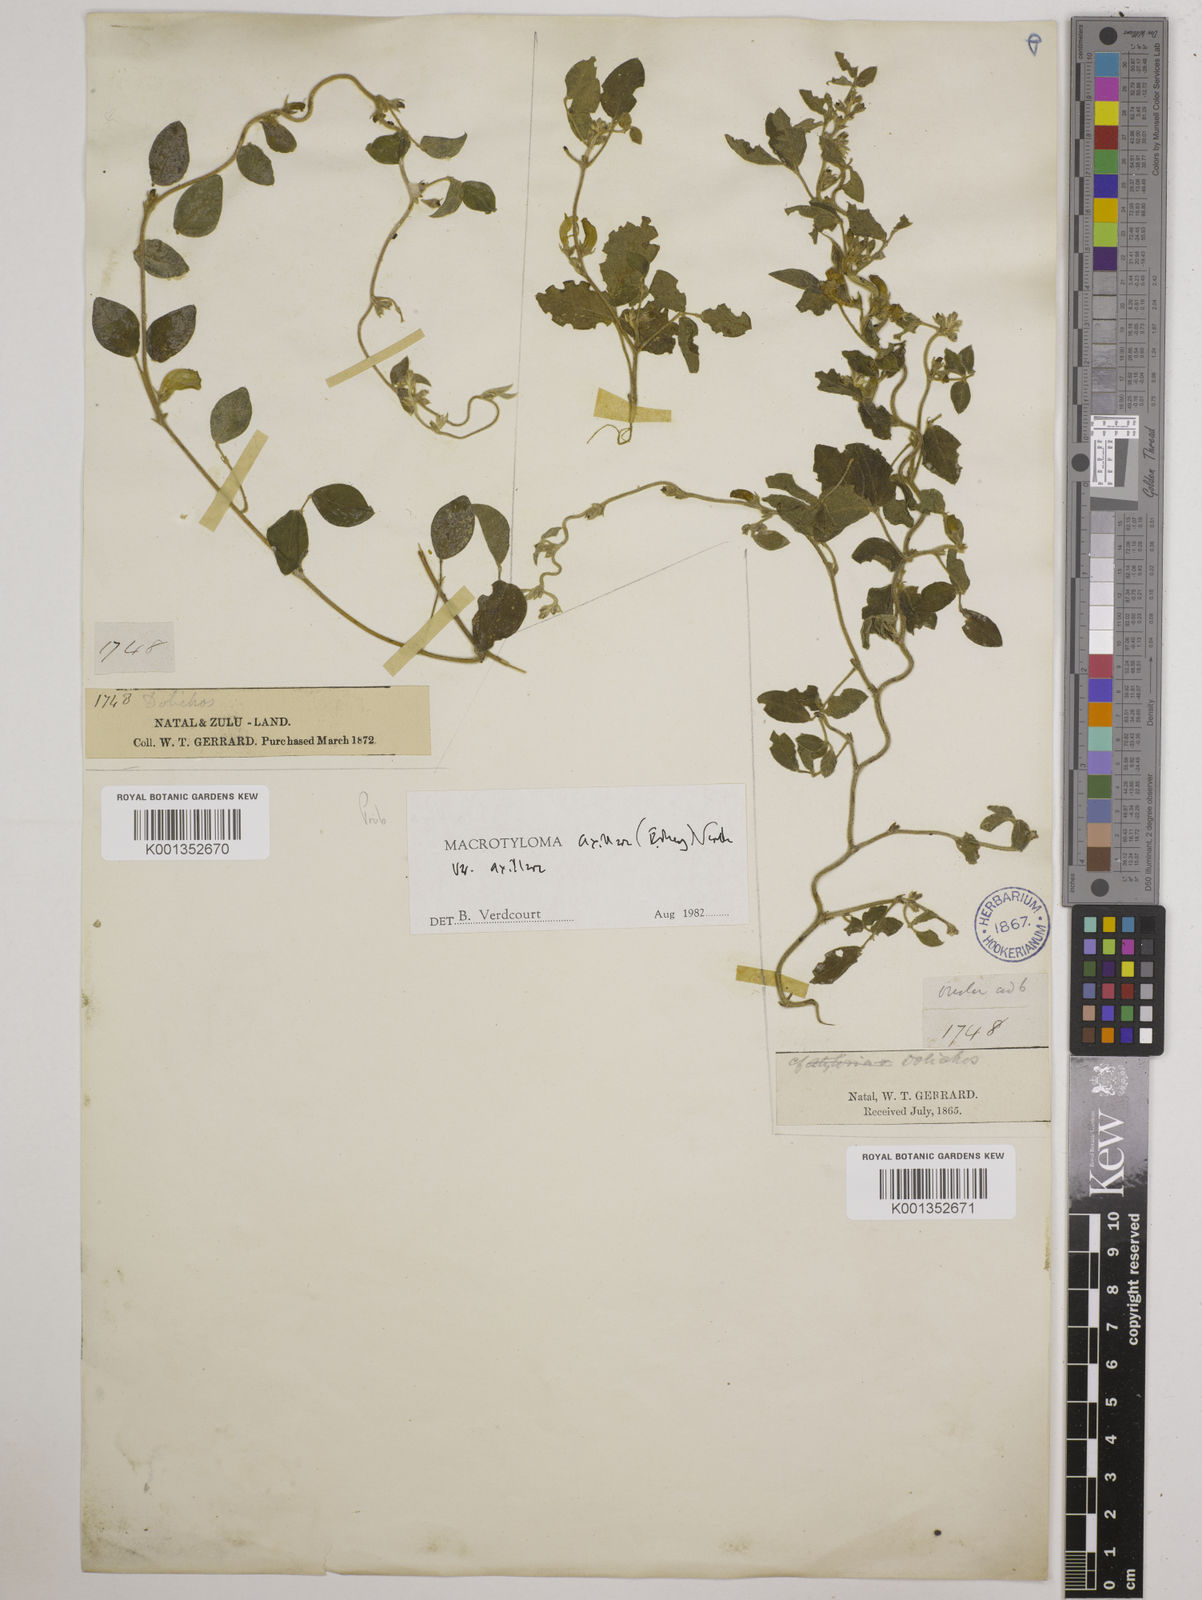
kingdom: Plantae
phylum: Tracheophyta
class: Magnoliopsida
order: Fabales
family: Fabaceae
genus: Macrotyloma
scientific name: Macrotyloma axillare
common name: Perennial horsegram
